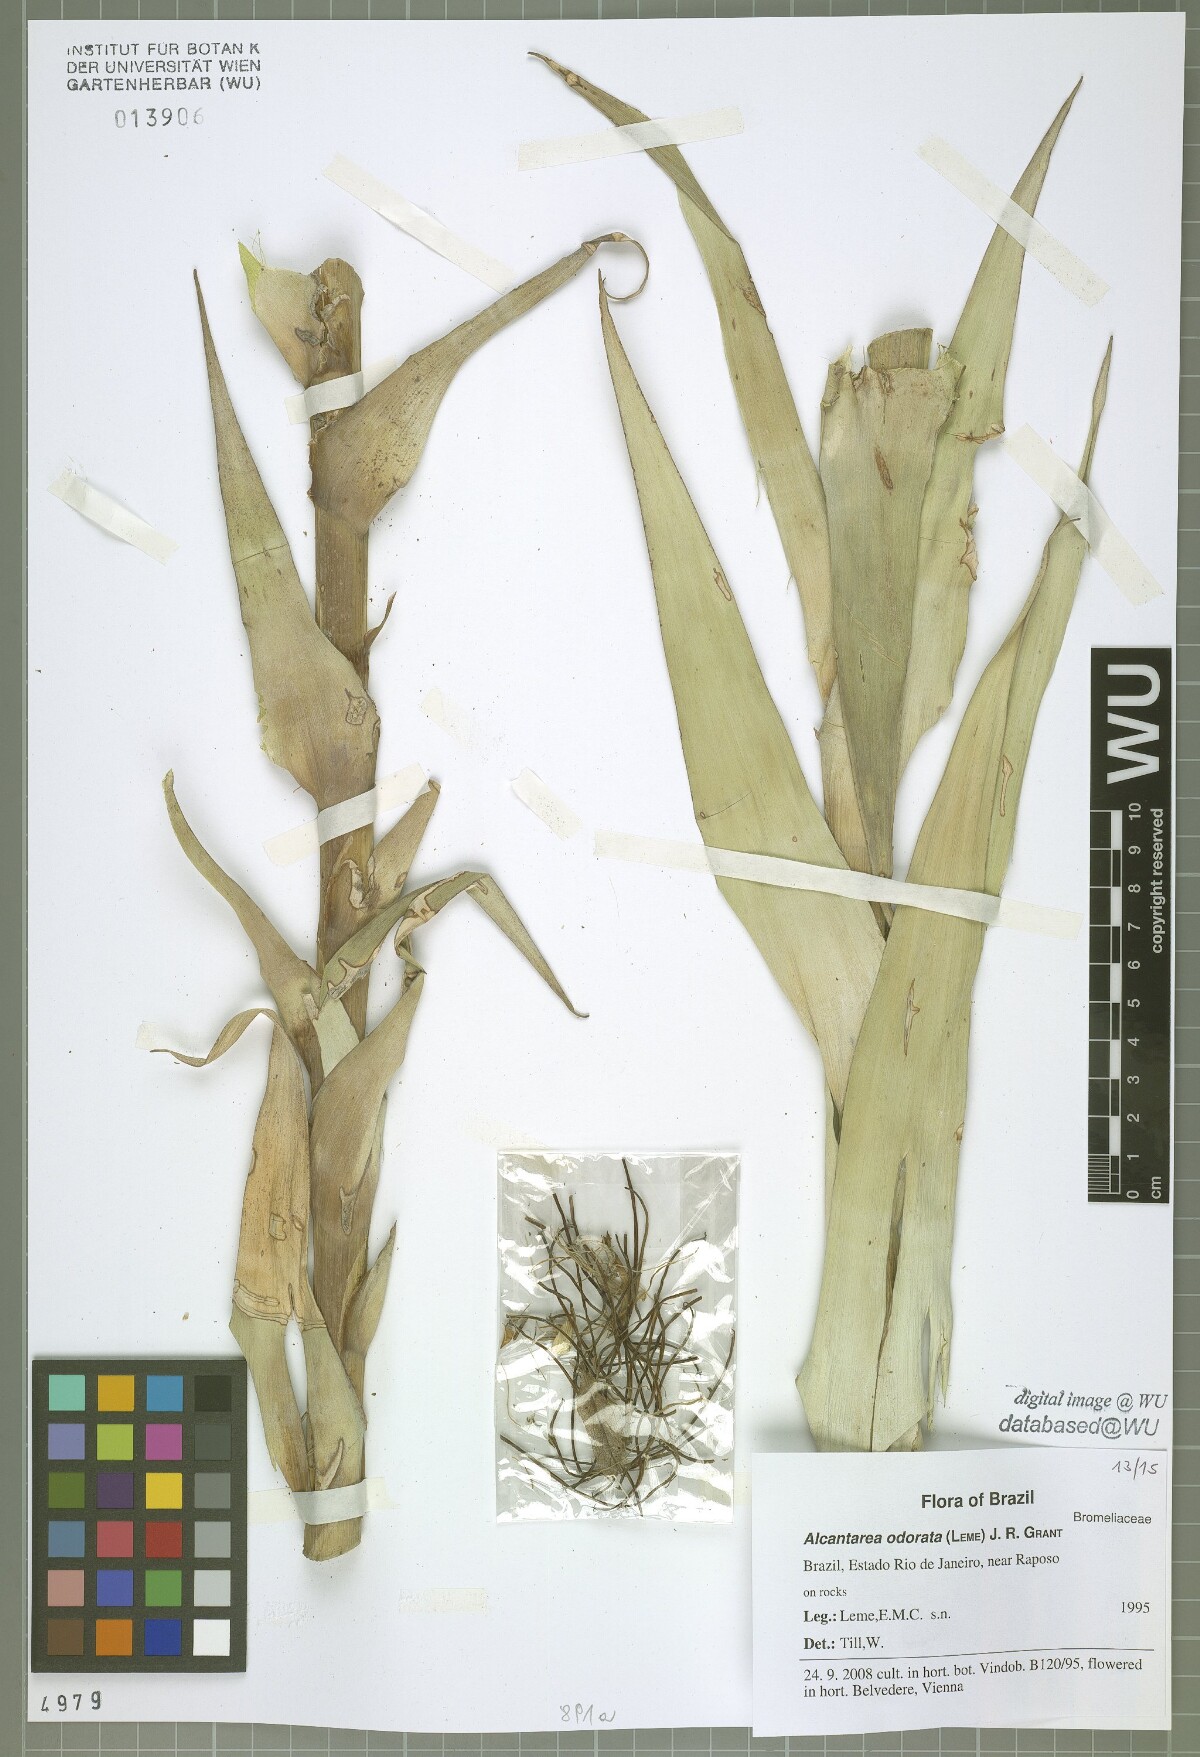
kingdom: Plantae
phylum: Tracheophyta
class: Liliopsida
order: Poales
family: Bromeliaceae
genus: Alcantarea
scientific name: Alcantarea odorata
